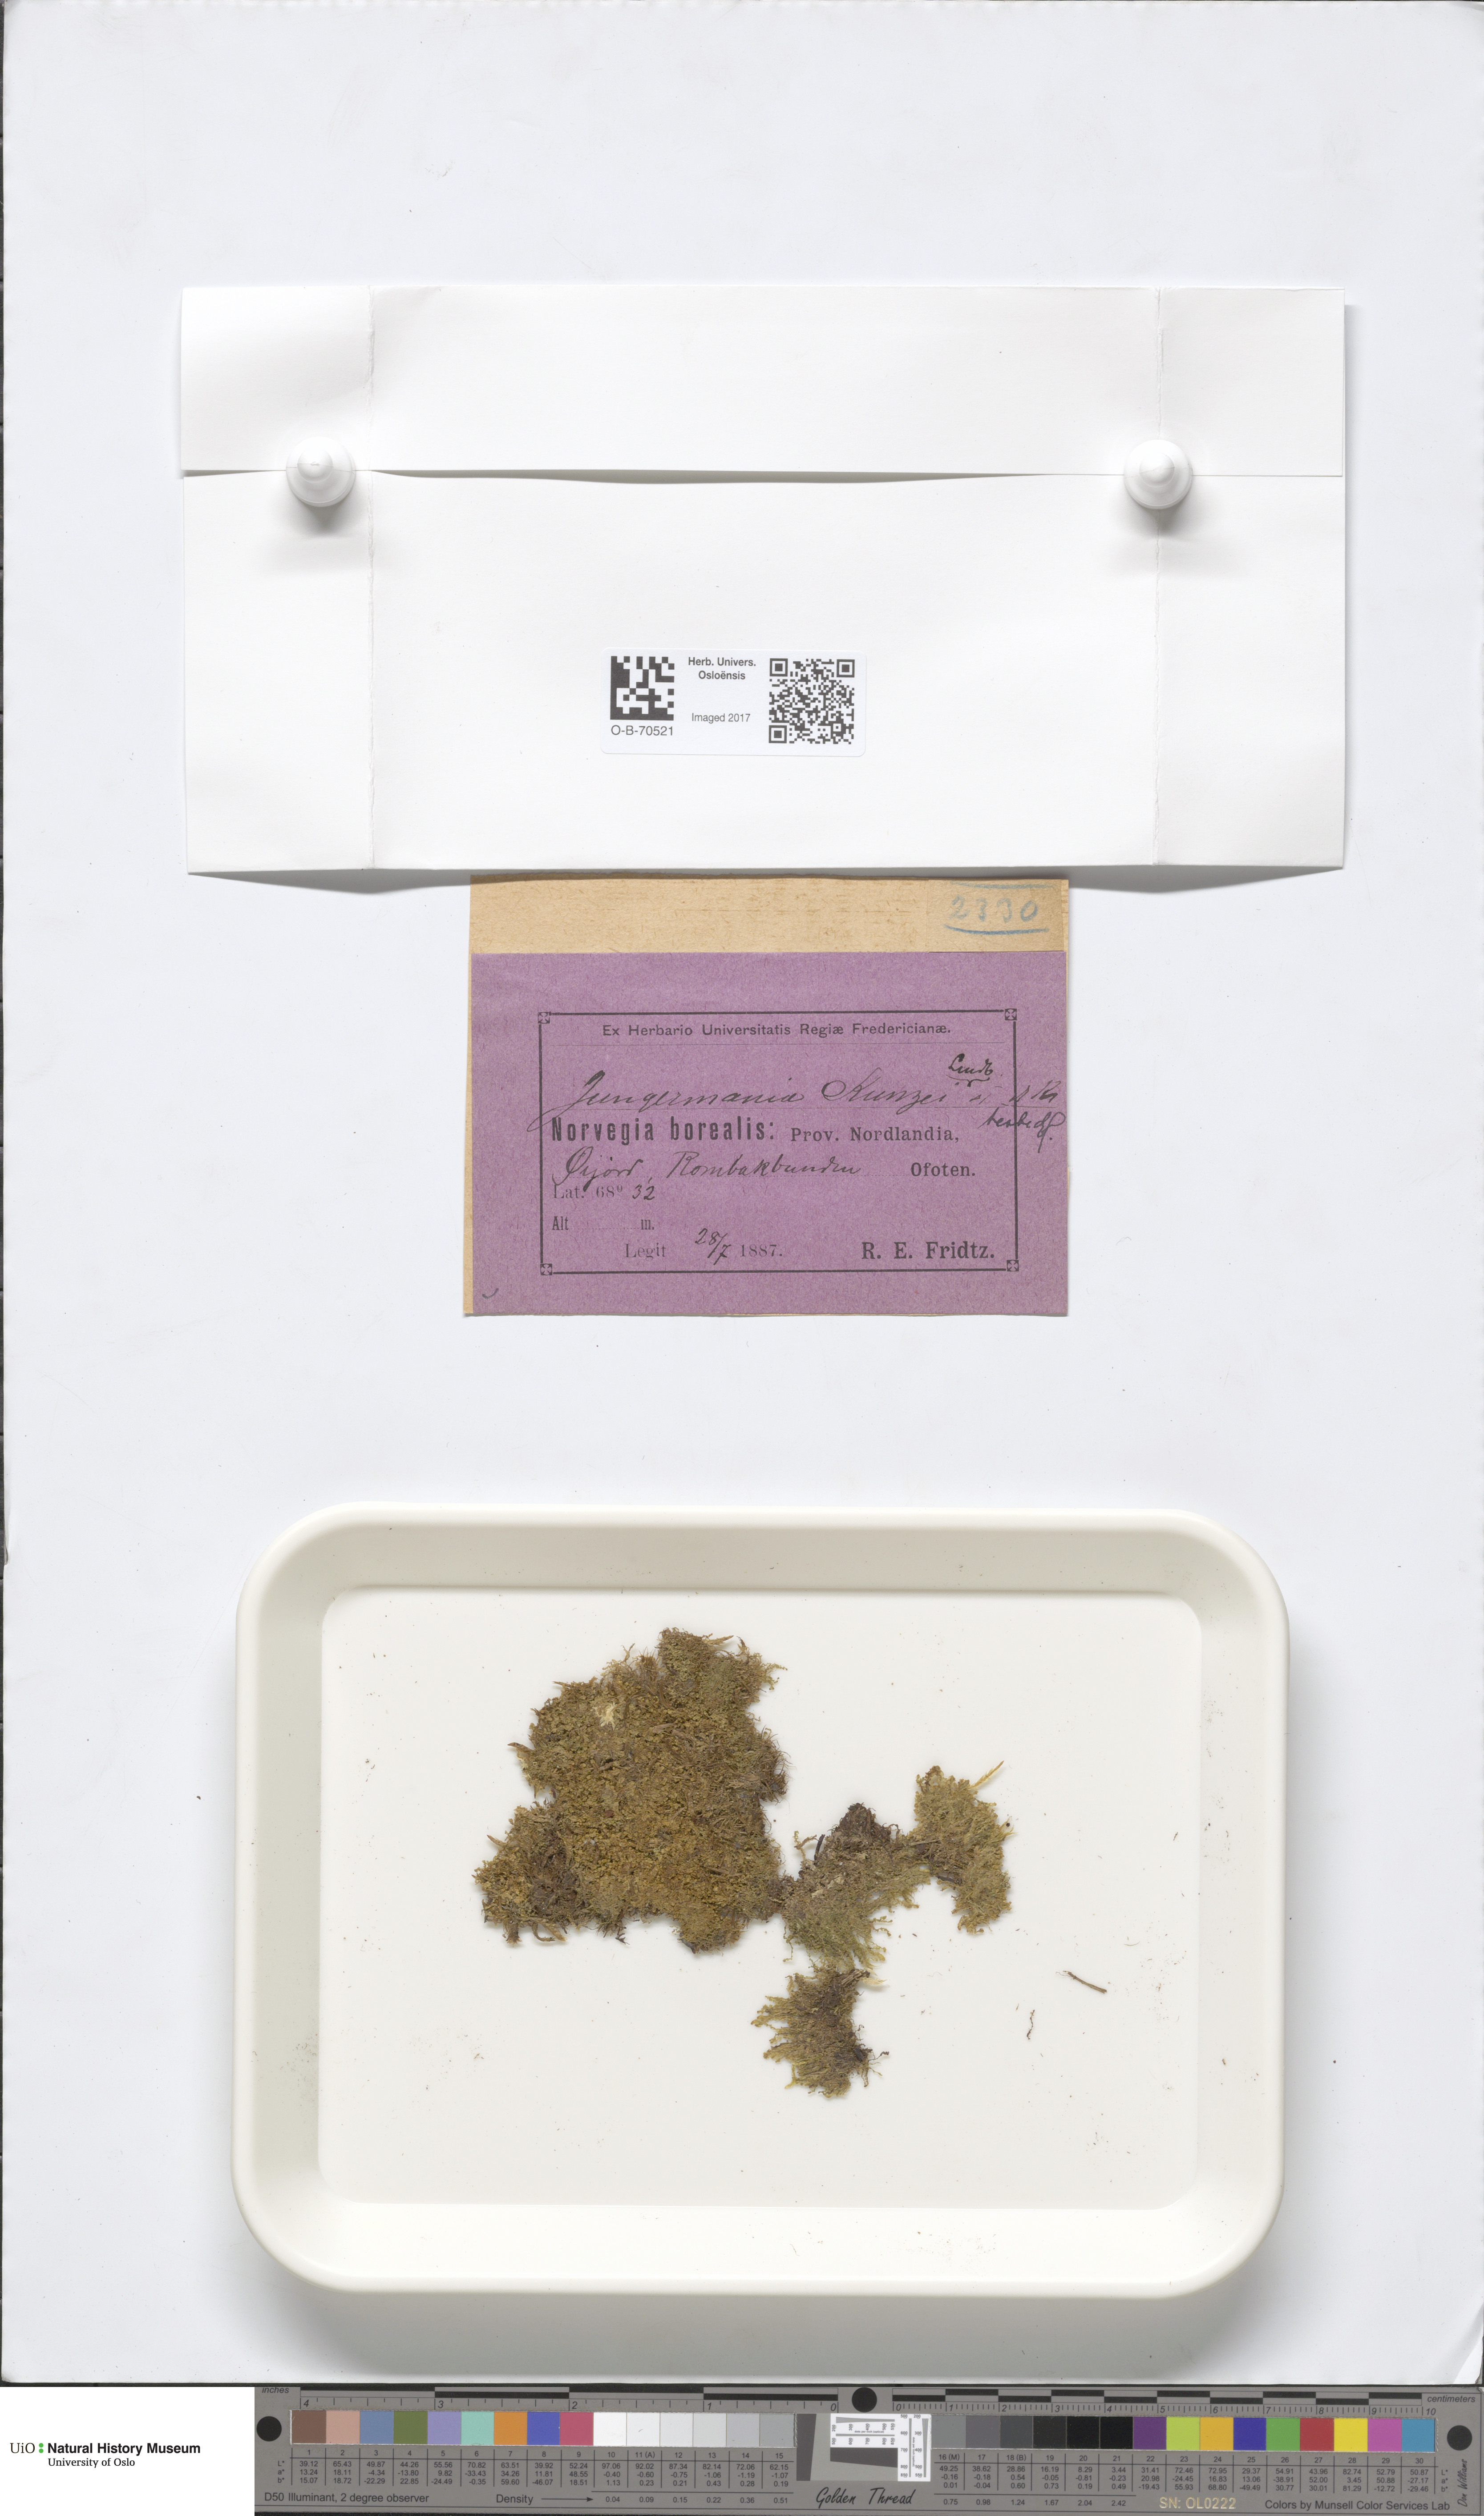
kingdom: Plantae
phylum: Marchantiophyta
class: Jungermanniopsida
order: Jungermanniales
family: Anastrophyllaceae
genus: Schljakovia
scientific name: Schljakovia kunzeana
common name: Kunze's pawwort
